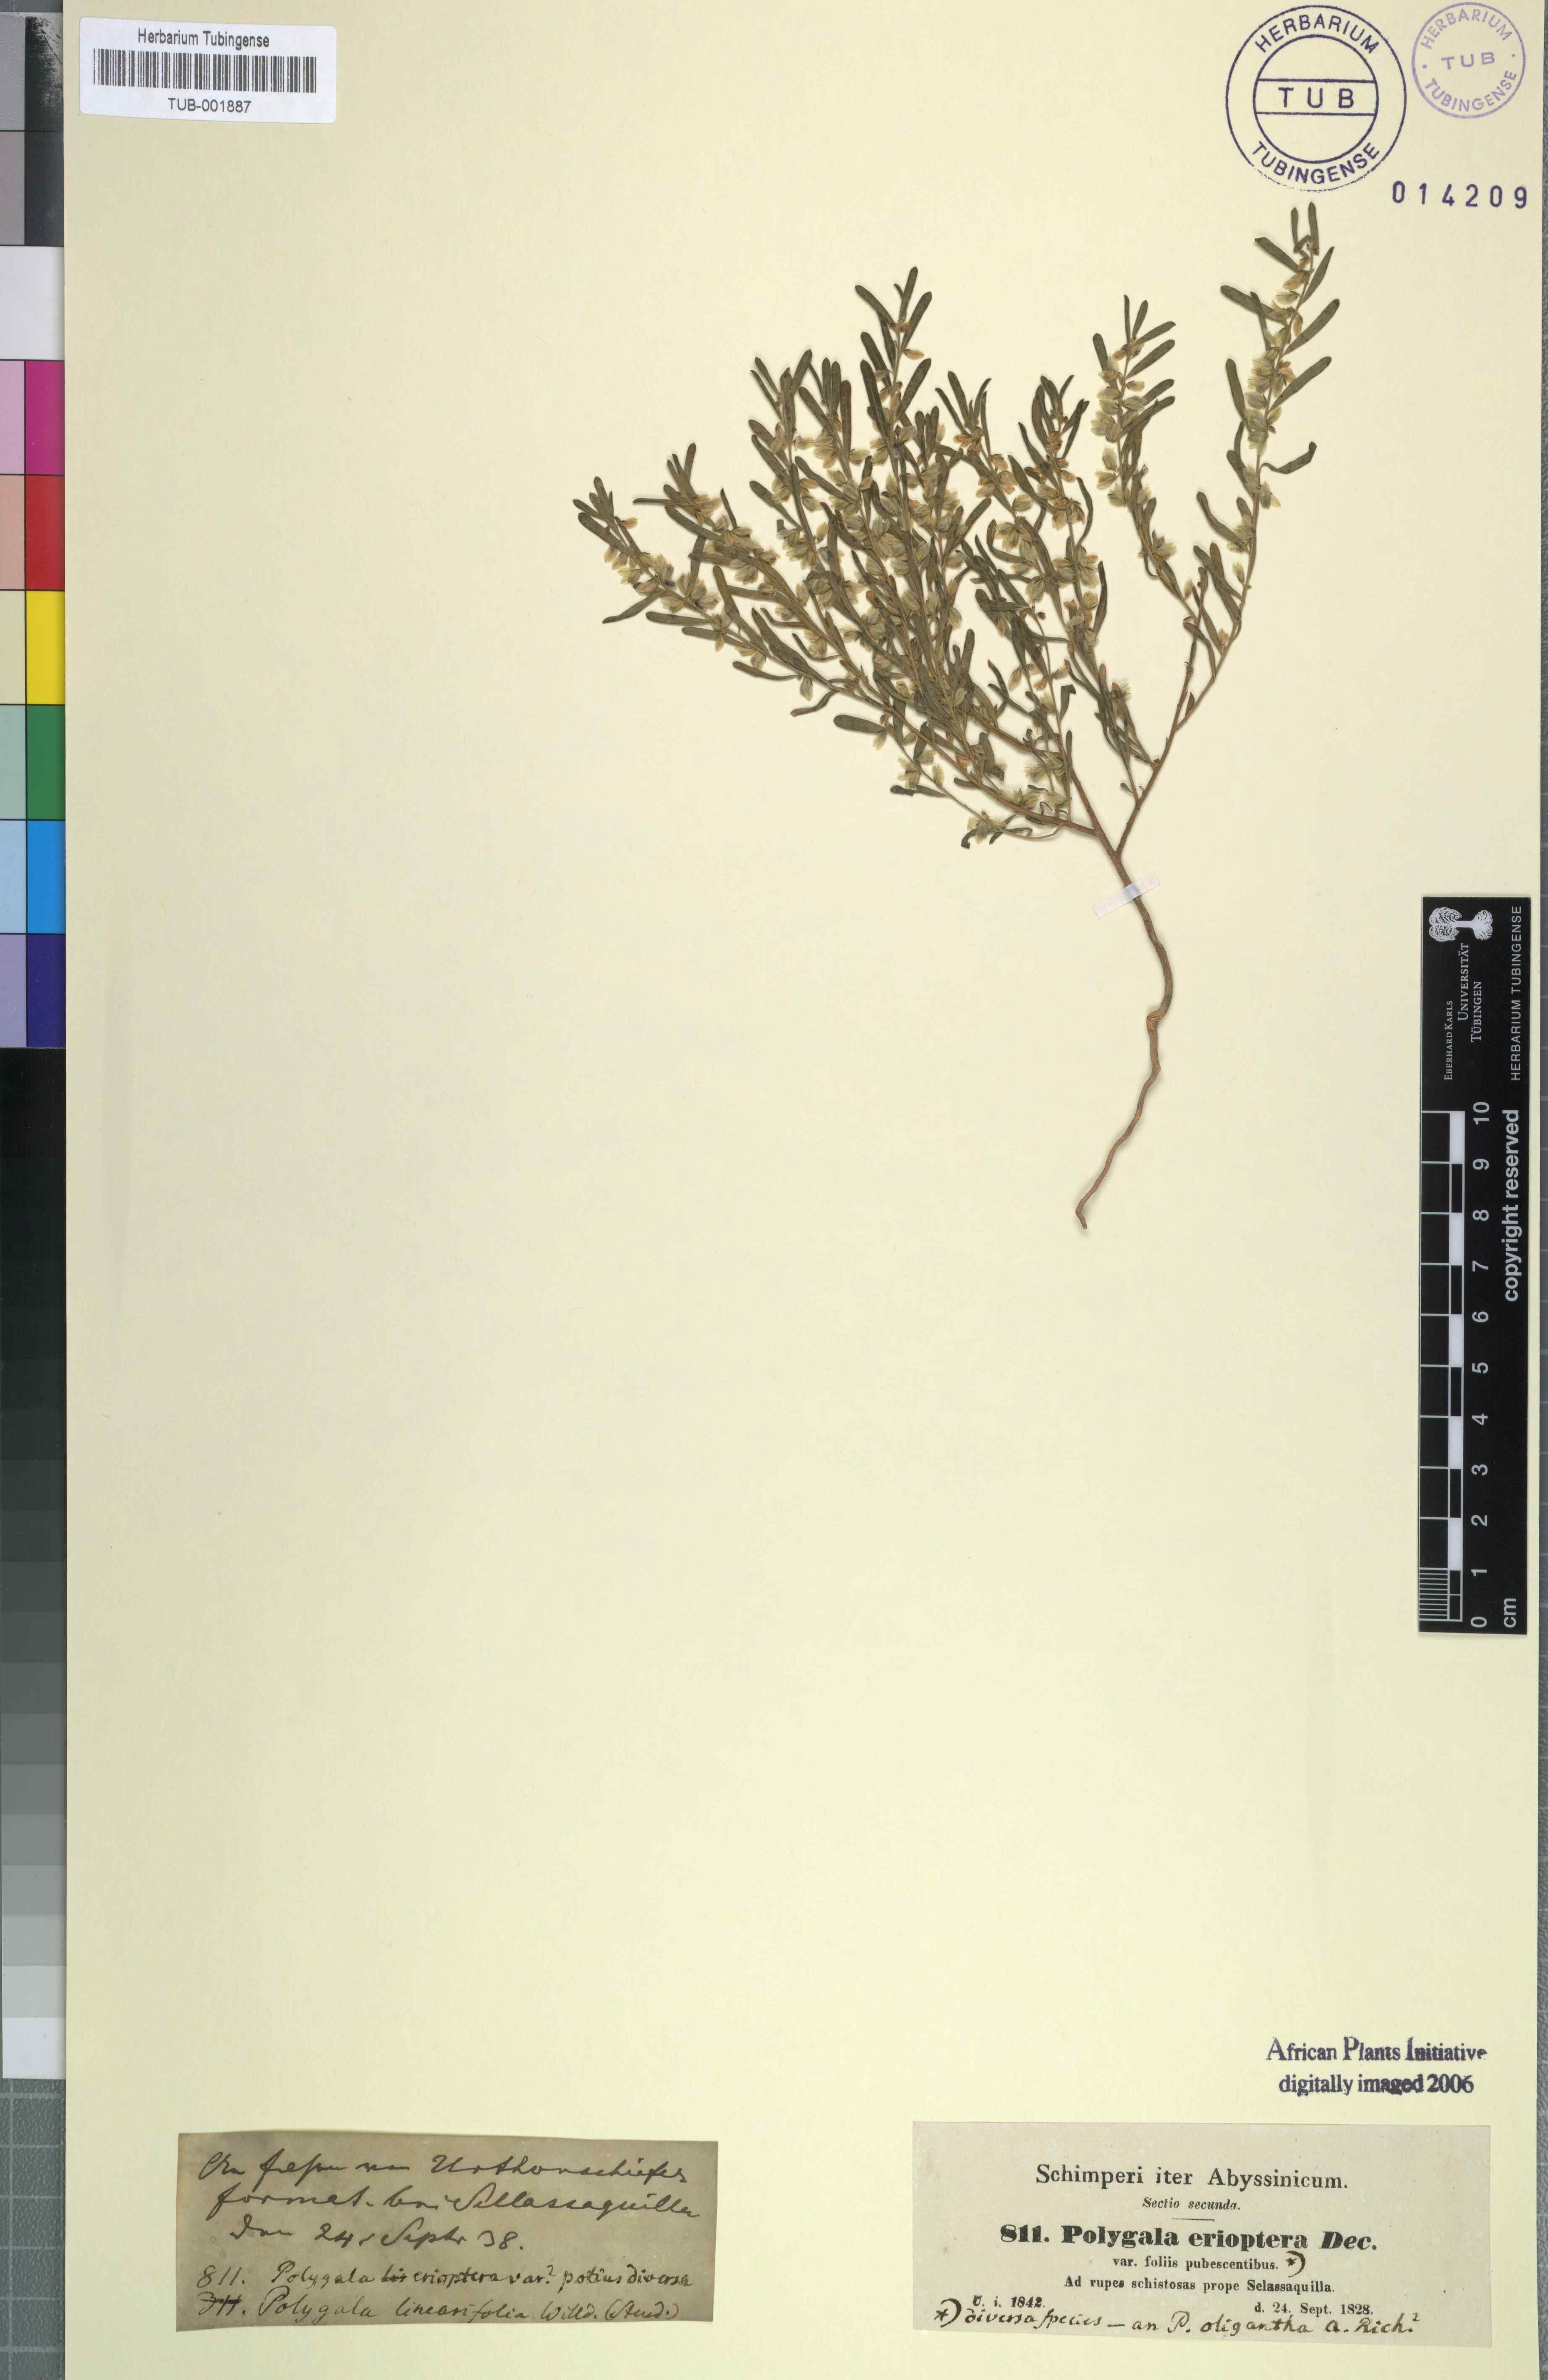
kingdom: Plantae
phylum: Tracheophyta
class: Magnoliopsida
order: Fabales
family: Polygalaceae
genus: Polygala
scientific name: Polygala erioptera
